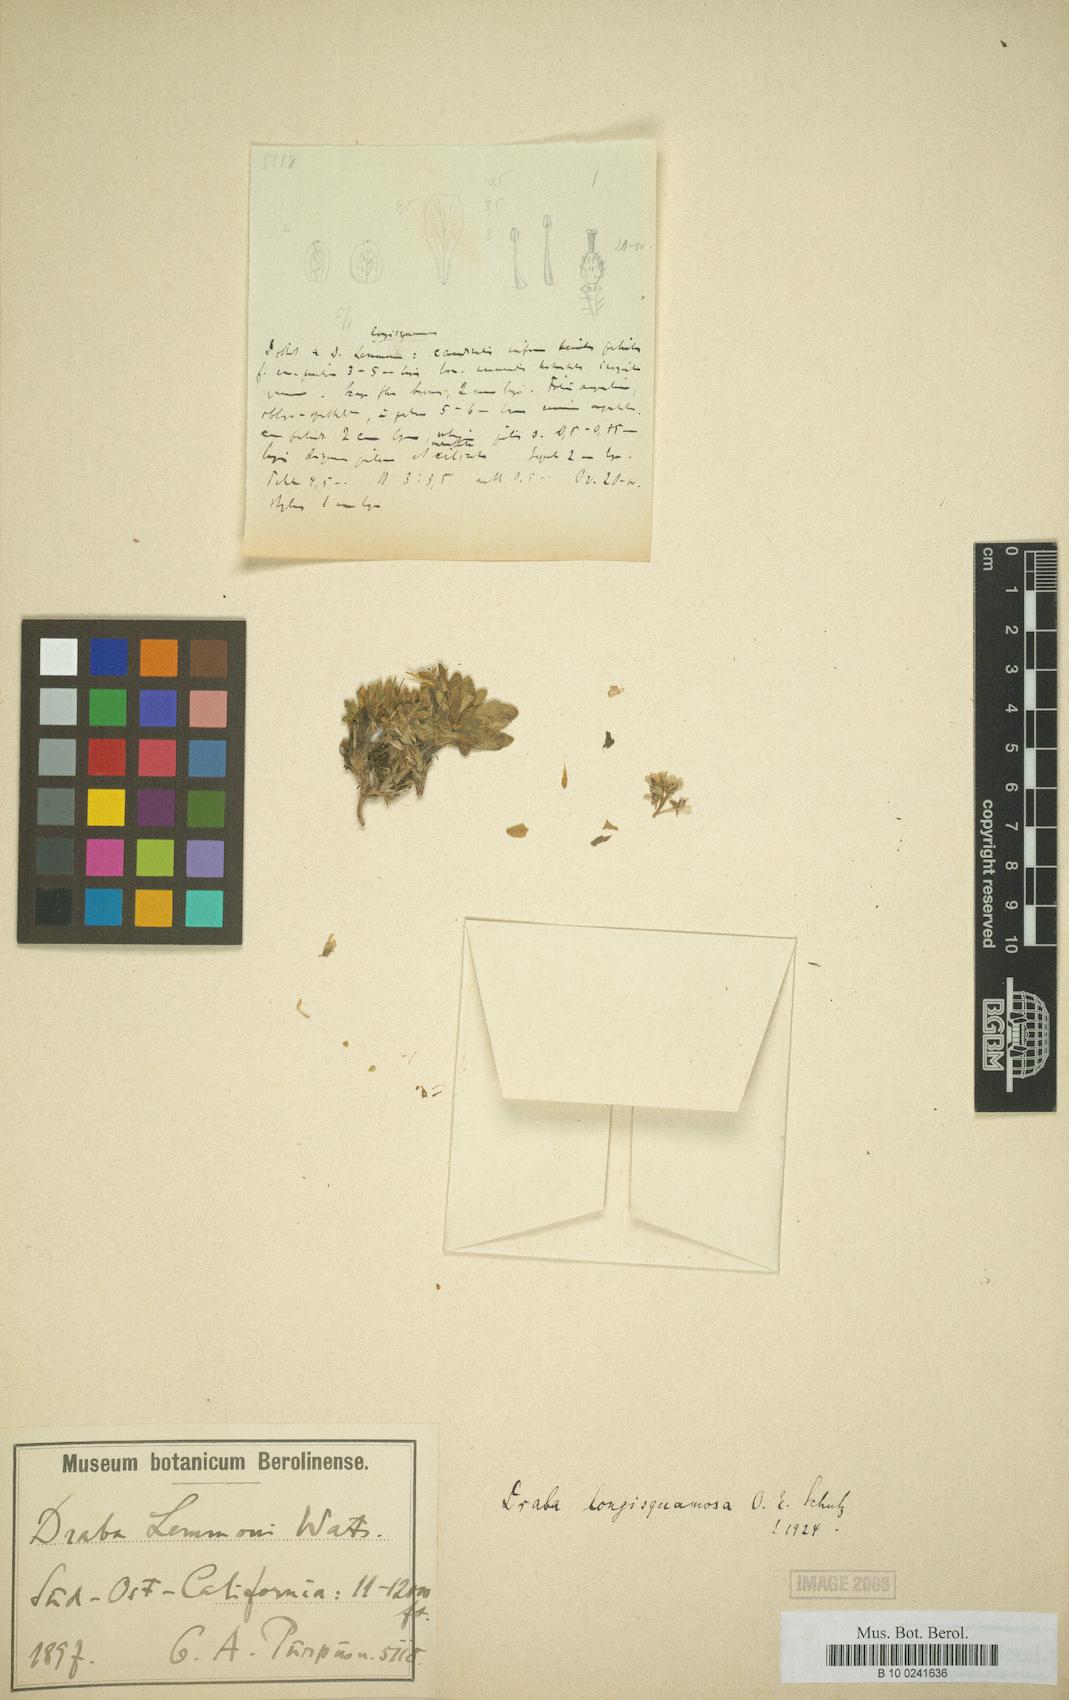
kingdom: Plantae
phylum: Tracheophyta
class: Magnoliopsida
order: Brassicales
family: Brassicaceae
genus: Draba
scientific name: Draba longisquamosa
